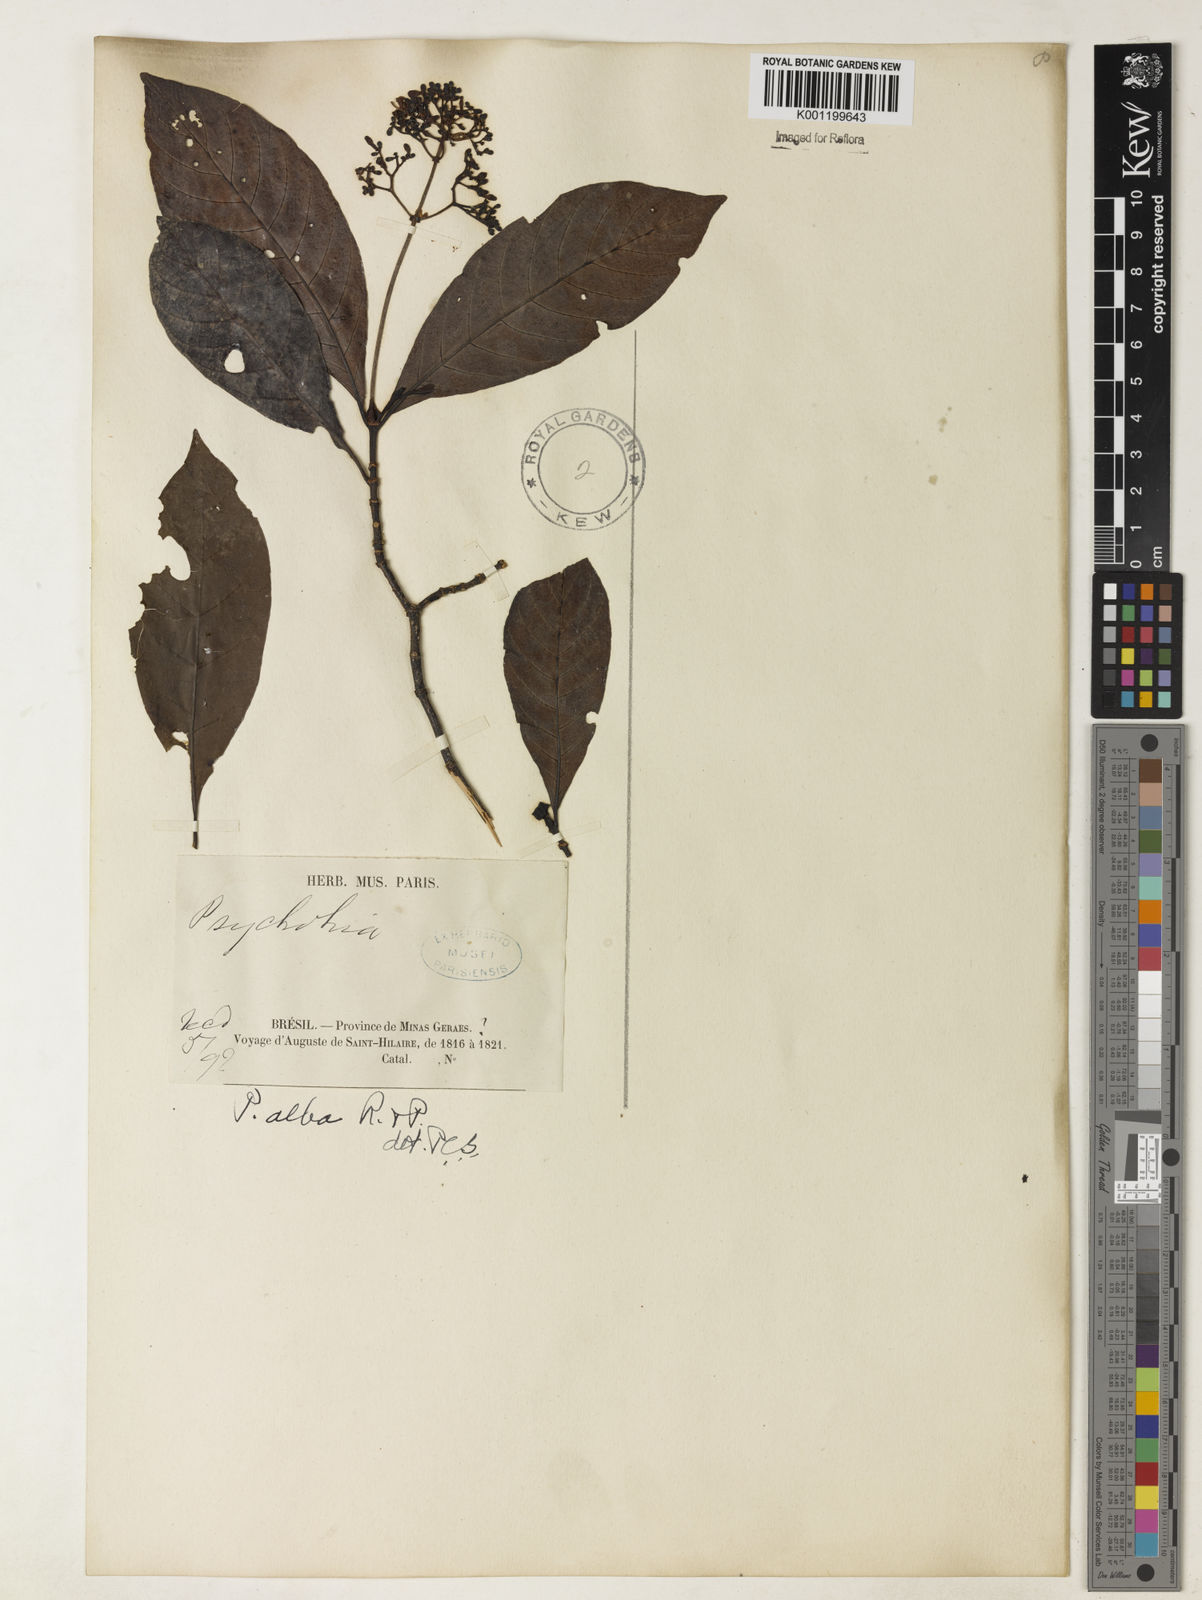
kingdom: Plantae
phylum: Tracheophyta
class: Magnoliopsida
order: Gentianales
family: Rubiaceae
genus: Psychotria
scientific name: Psychotria carthagenensis
